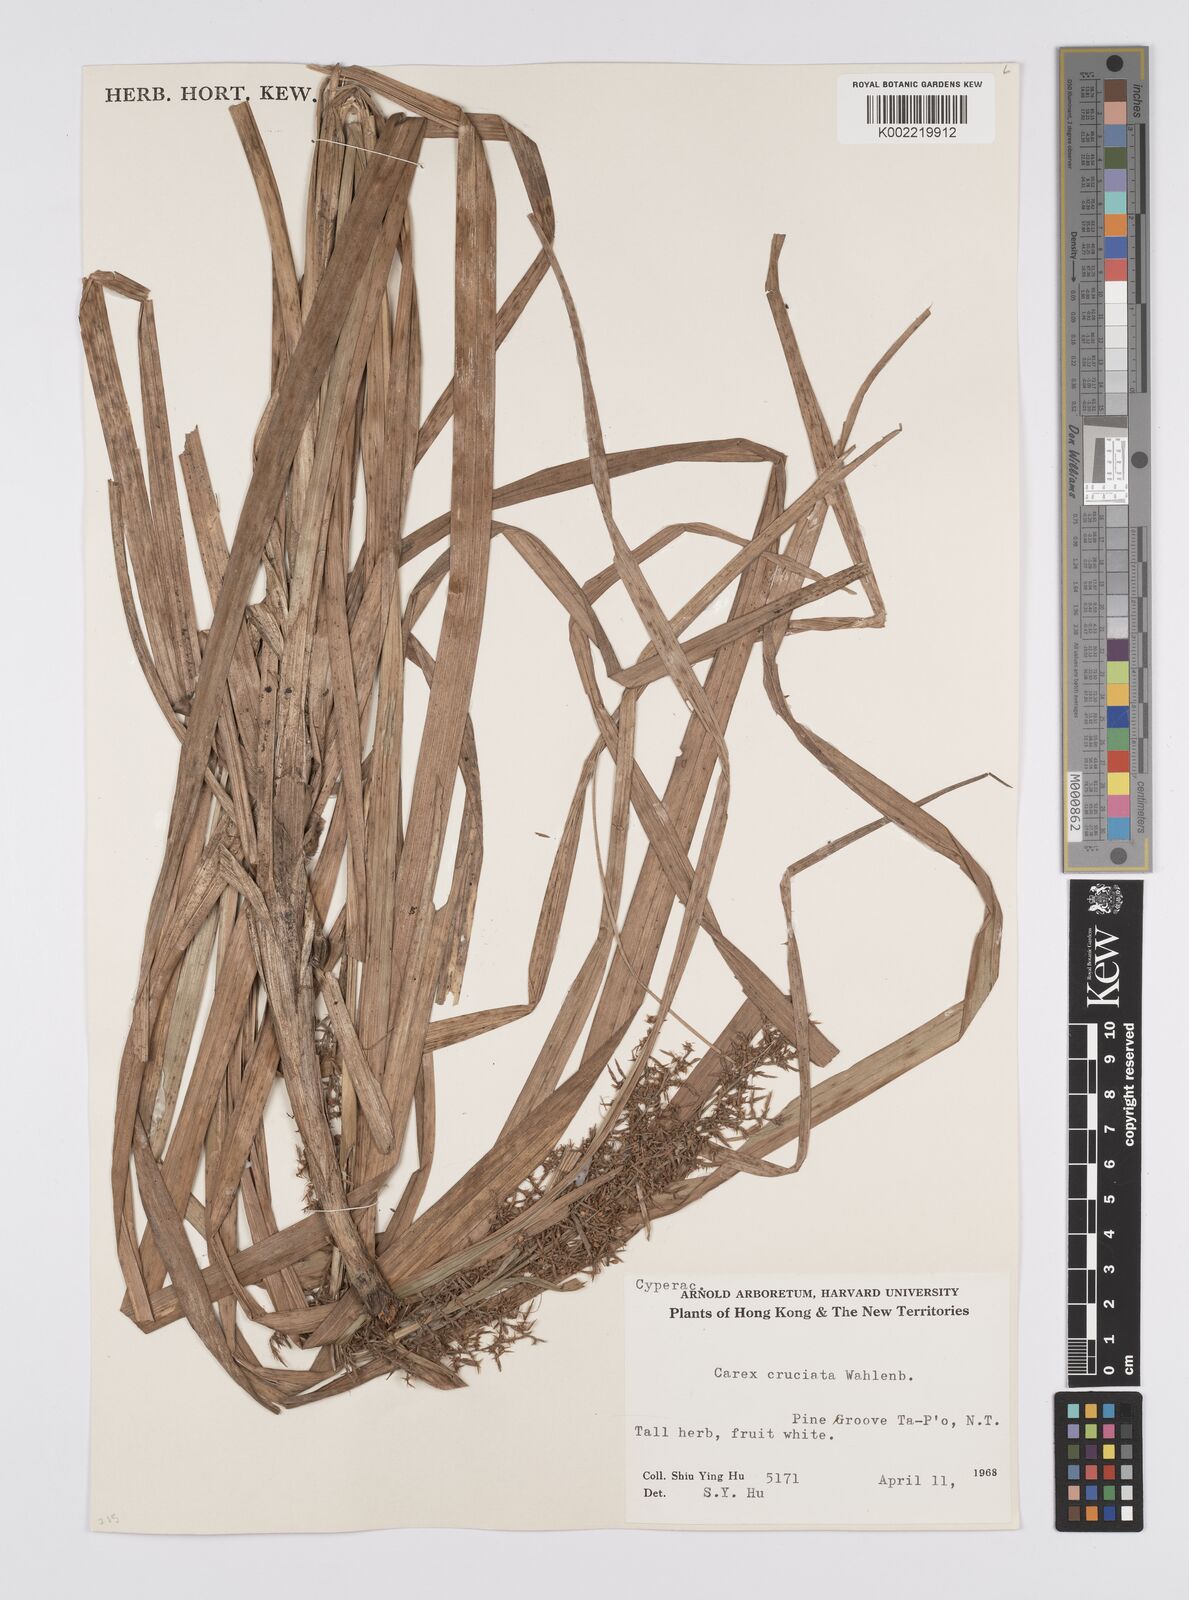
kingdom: Plantae
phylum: Tracheophyta
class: Liliopsida
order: Poales
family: Cyperaceae
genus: Carex
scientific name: Carex cruciata
